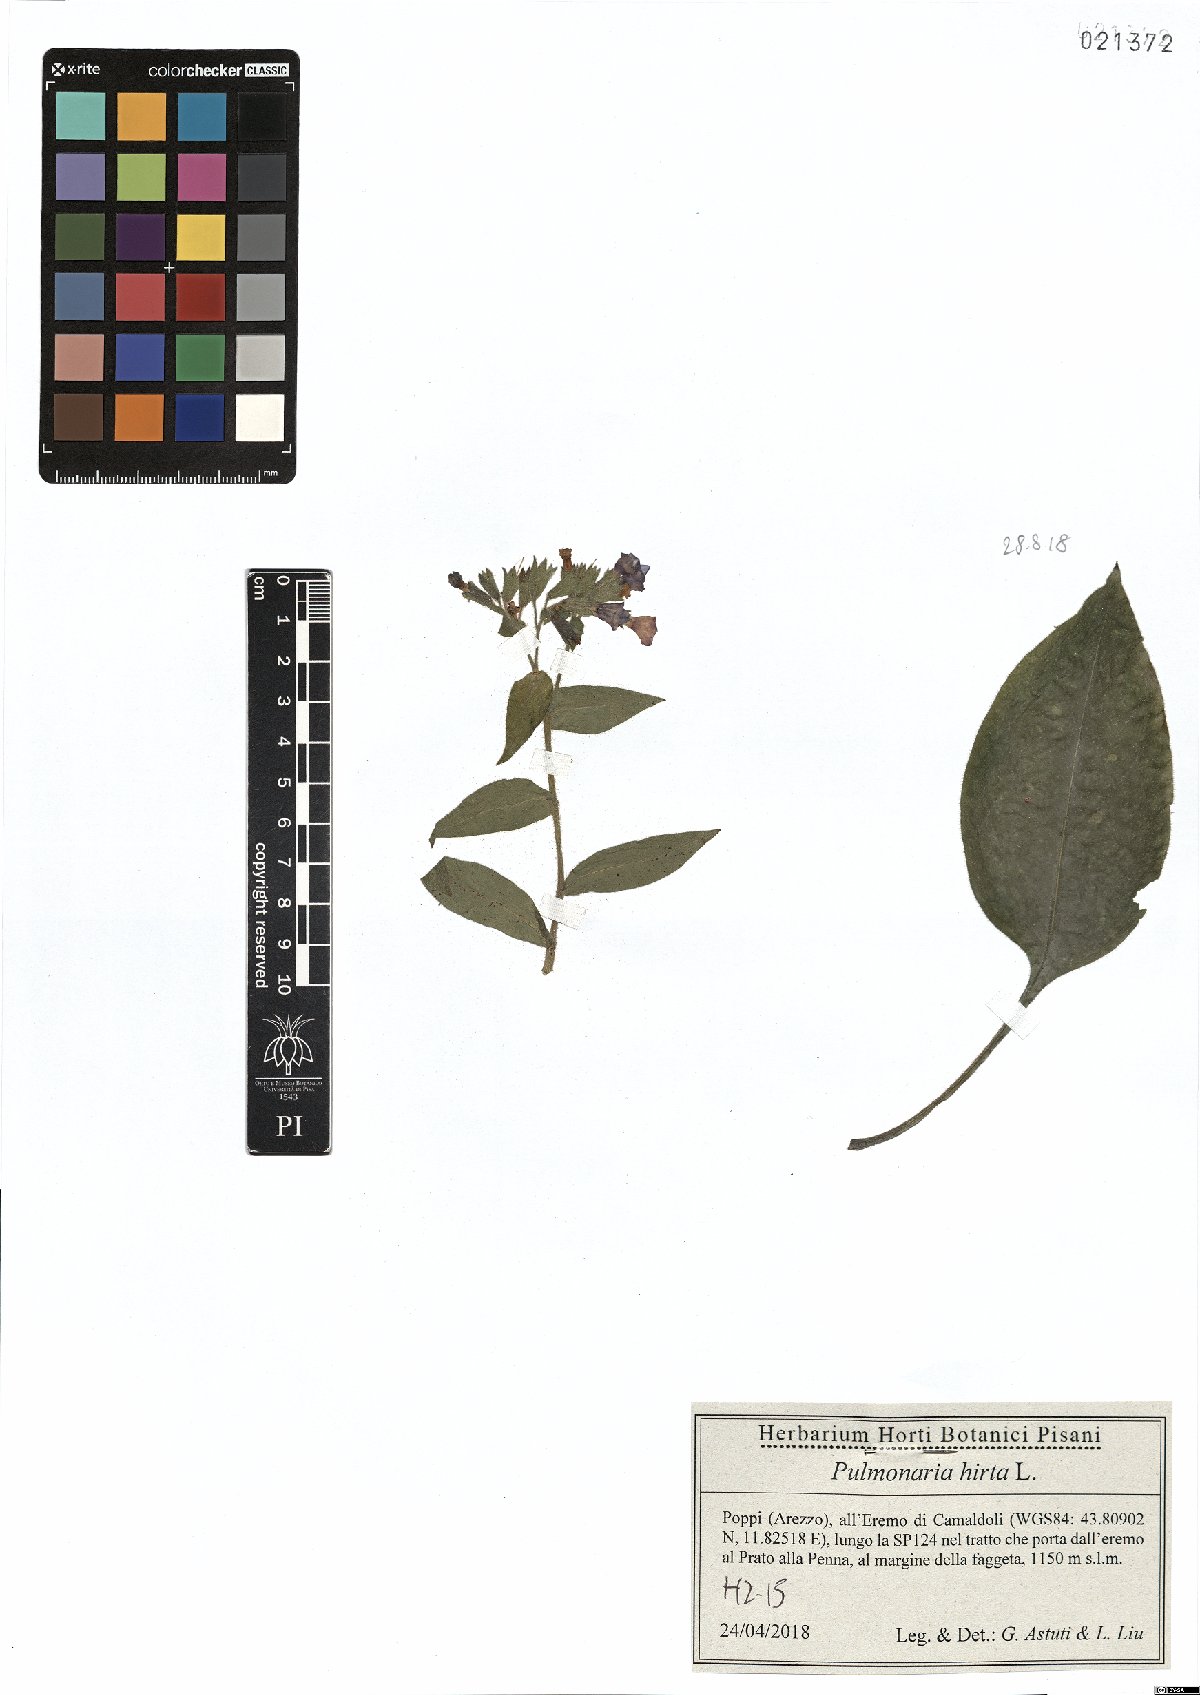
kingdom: Plantae
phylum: Tracheophyta
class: Magnoliopsida
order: Boraginales
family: Boraginaceae
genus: Pulmonaria
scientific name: Pulmonaria hirta
